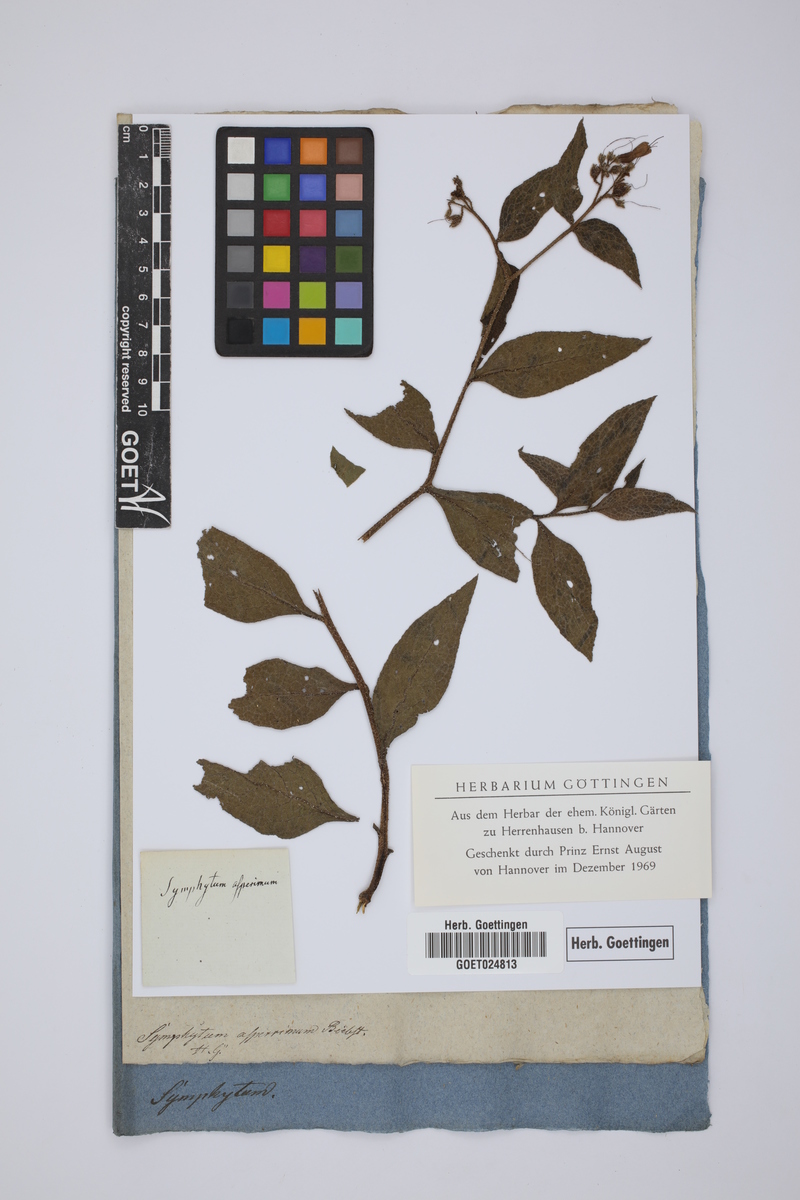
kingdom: Plantae
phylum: Tracheophyta
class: Magnoliopsida
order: Boraginales
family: Boraginaceae
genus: Symphytum
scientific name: Symphytum asperum
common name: Prickly comfrey
